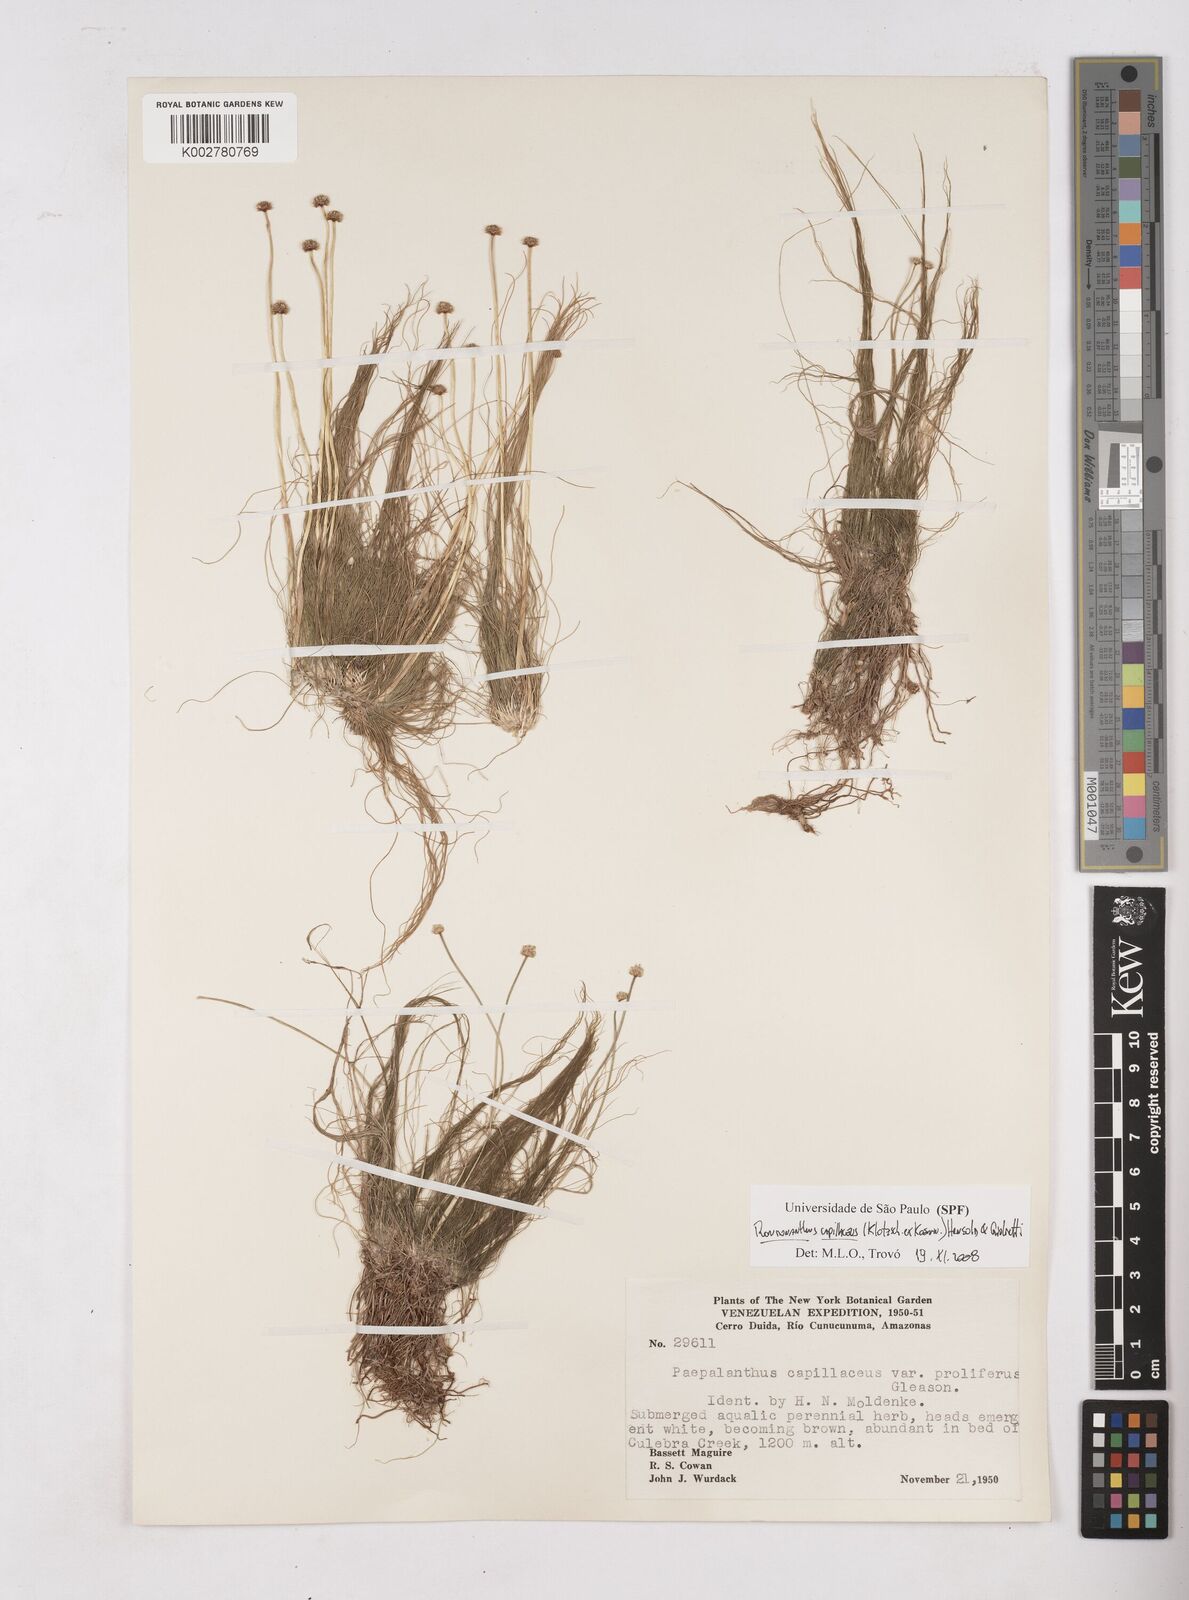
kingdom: Plantae
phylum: Tracheophyta
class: Liliopsida
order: Poales
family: Eriocaulaceae
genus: Rondonanthus
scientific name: Rondonanthus capillaceus
